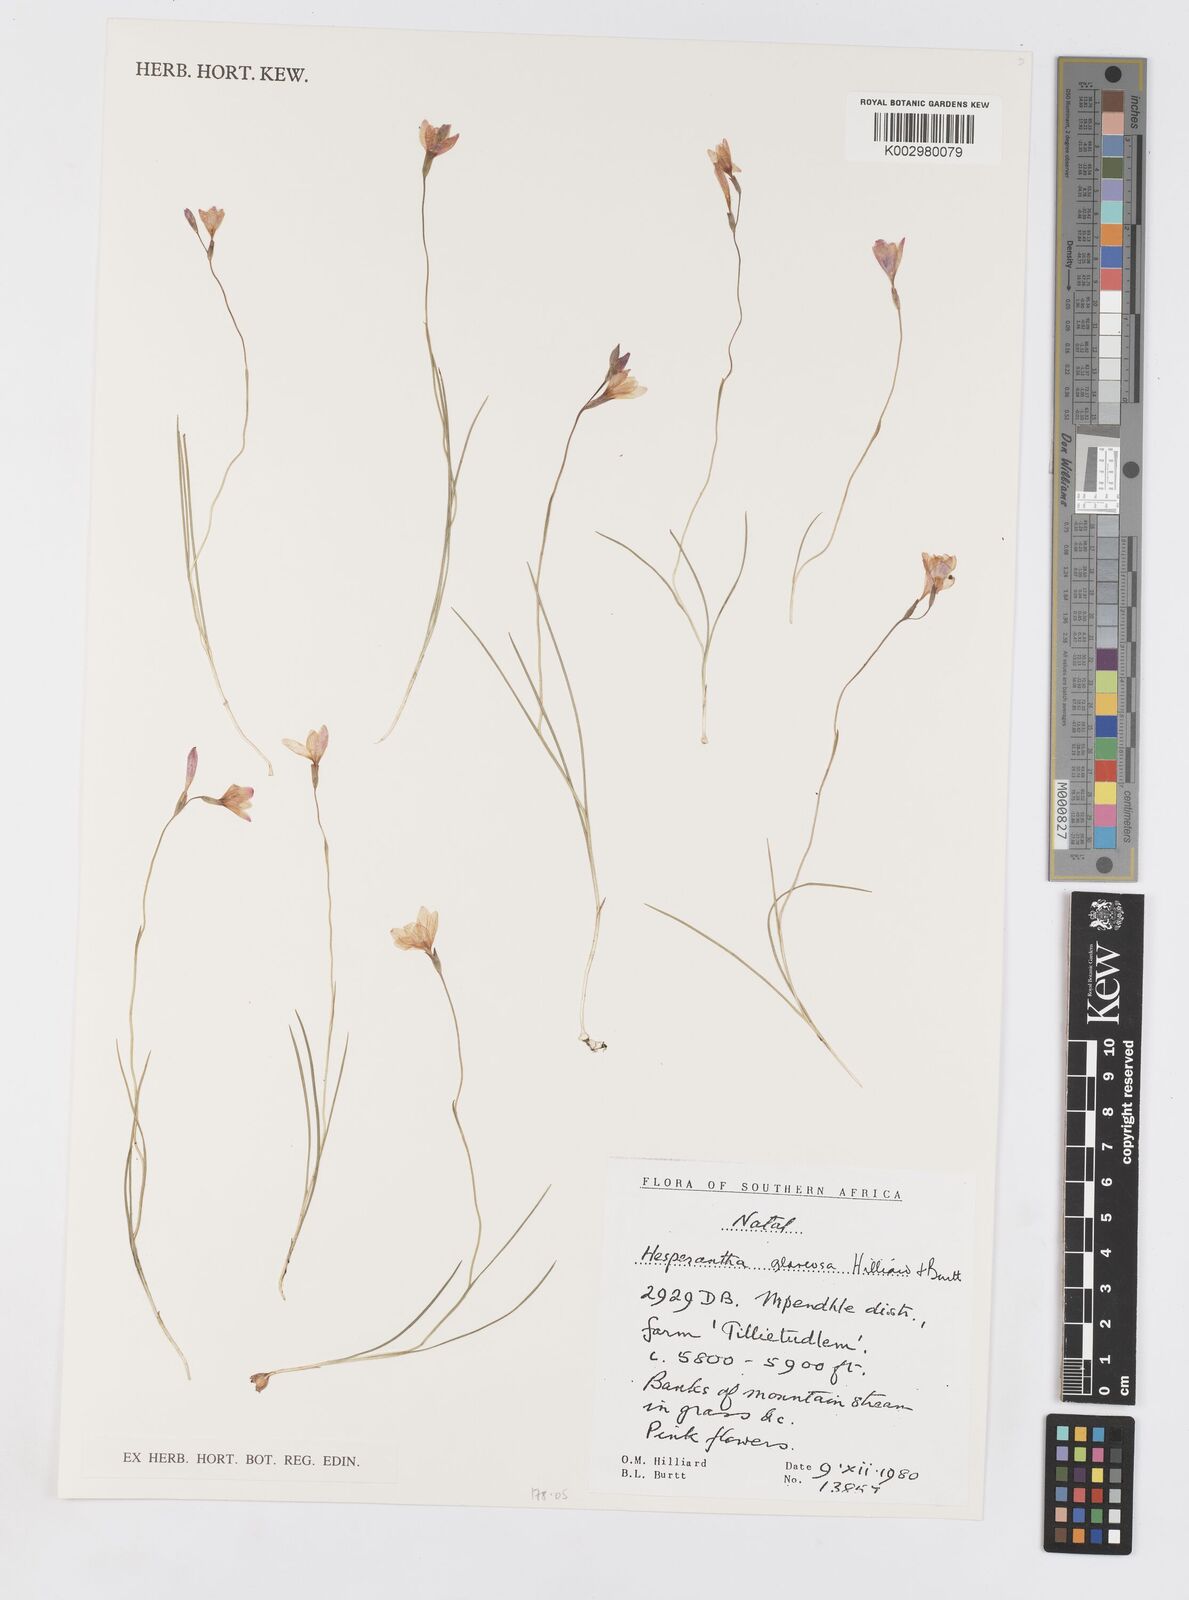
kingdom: Plantae
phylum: Tracheophyta
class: Liliopsida
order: Asparagales
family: Iridaceae
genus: Hesperantha
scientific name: Hesperantha glareosa
